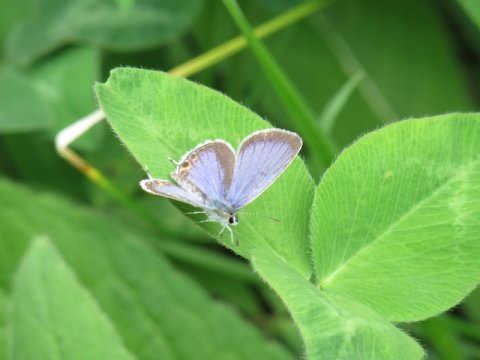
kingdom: Animalia
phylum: Arthropoda
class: Insecta
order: Lepidoptera
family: Lycaenidae
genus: Elkalyce
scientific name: Elkalyce comyntas
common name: Eastern Tailed-Blue
